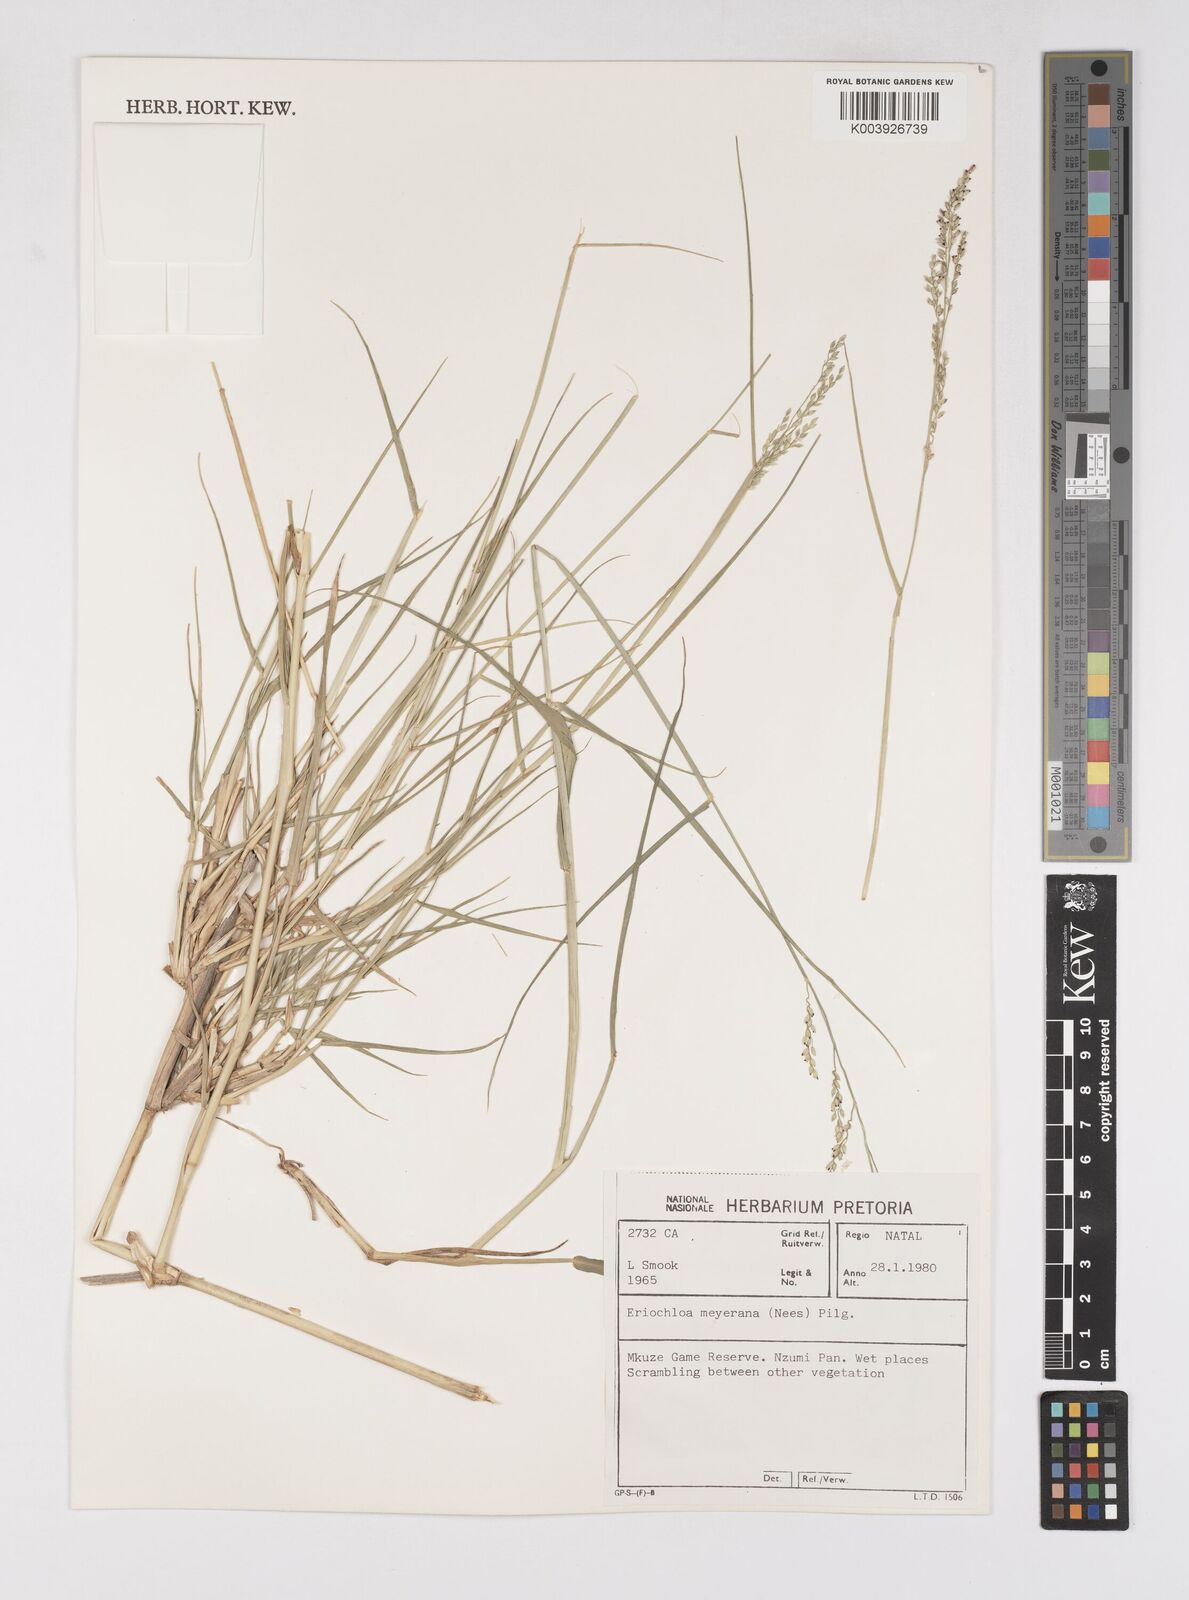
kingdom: Plantae
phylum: Tracheophyta
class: Liliopsida
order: Poales
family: Poaceae
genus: Eriochloa
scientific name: Eriochloa meyeriana
